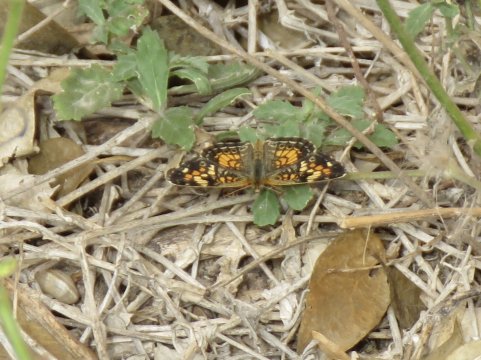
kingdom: Animalia
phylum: Arthropoda
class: Insecta
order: Lepidoptera
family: Nymphalidae
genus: Phyciodes
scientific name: Phyciodes phaon
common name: Phaon Crescent
